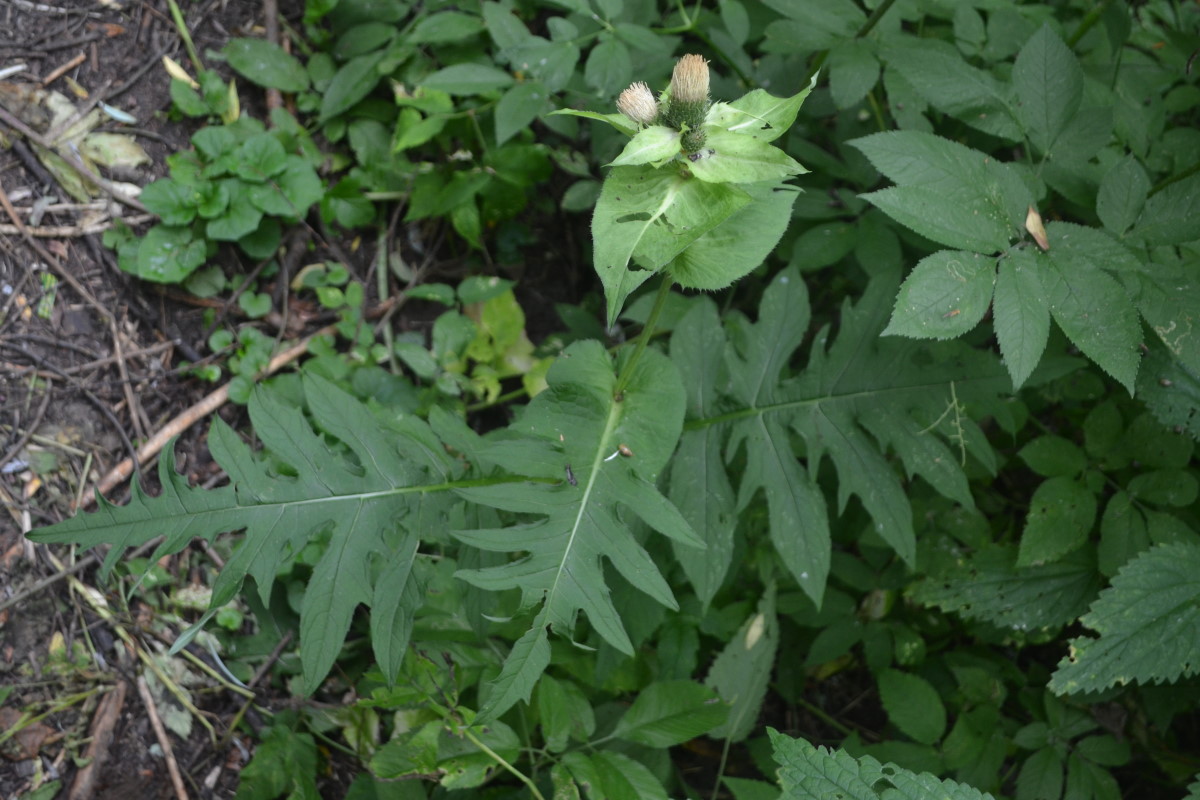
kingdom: Plantae
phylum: Tracheophyta
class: Magnoliopsida
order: Asterales
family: Asteraceae
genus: Cirsium
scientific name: Cirsium oleraceum
